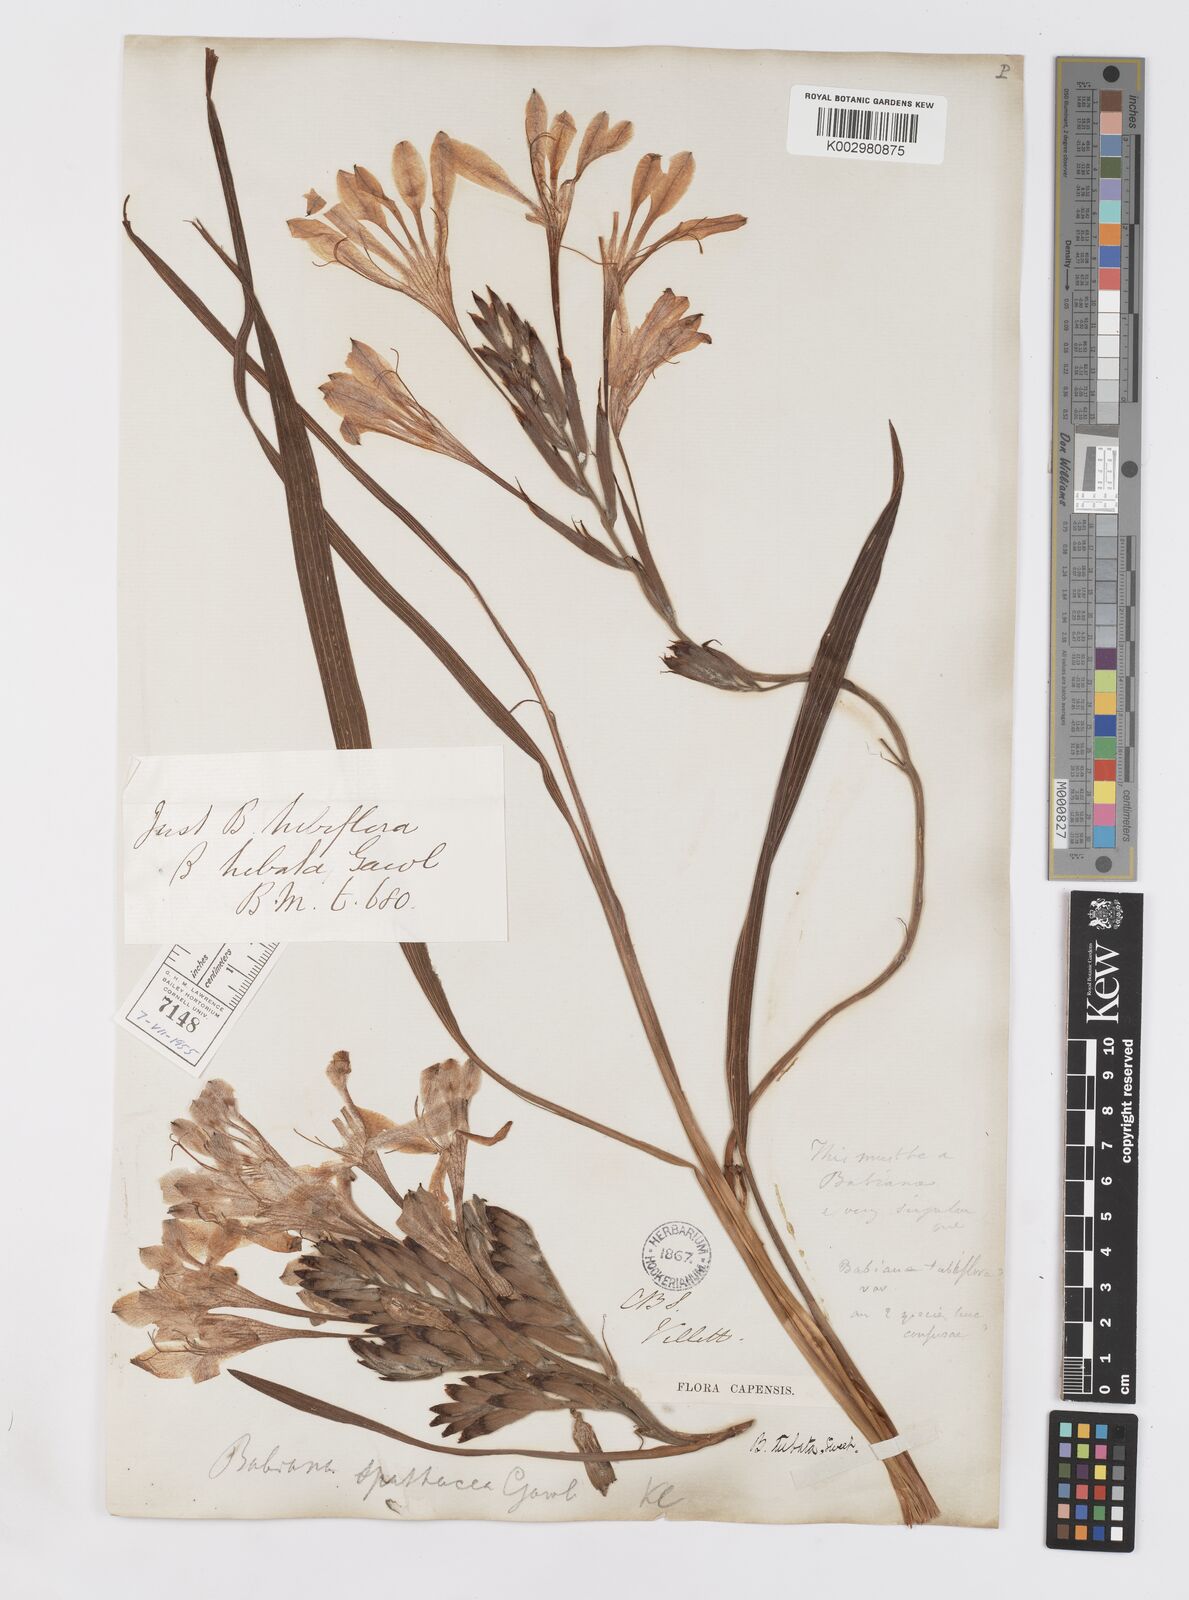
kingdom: Plantae
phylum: Tracheophyta
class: Liliopsida
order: Asparagales
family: Iridaceae
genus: Babiana
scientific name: Babiana tubulosa
